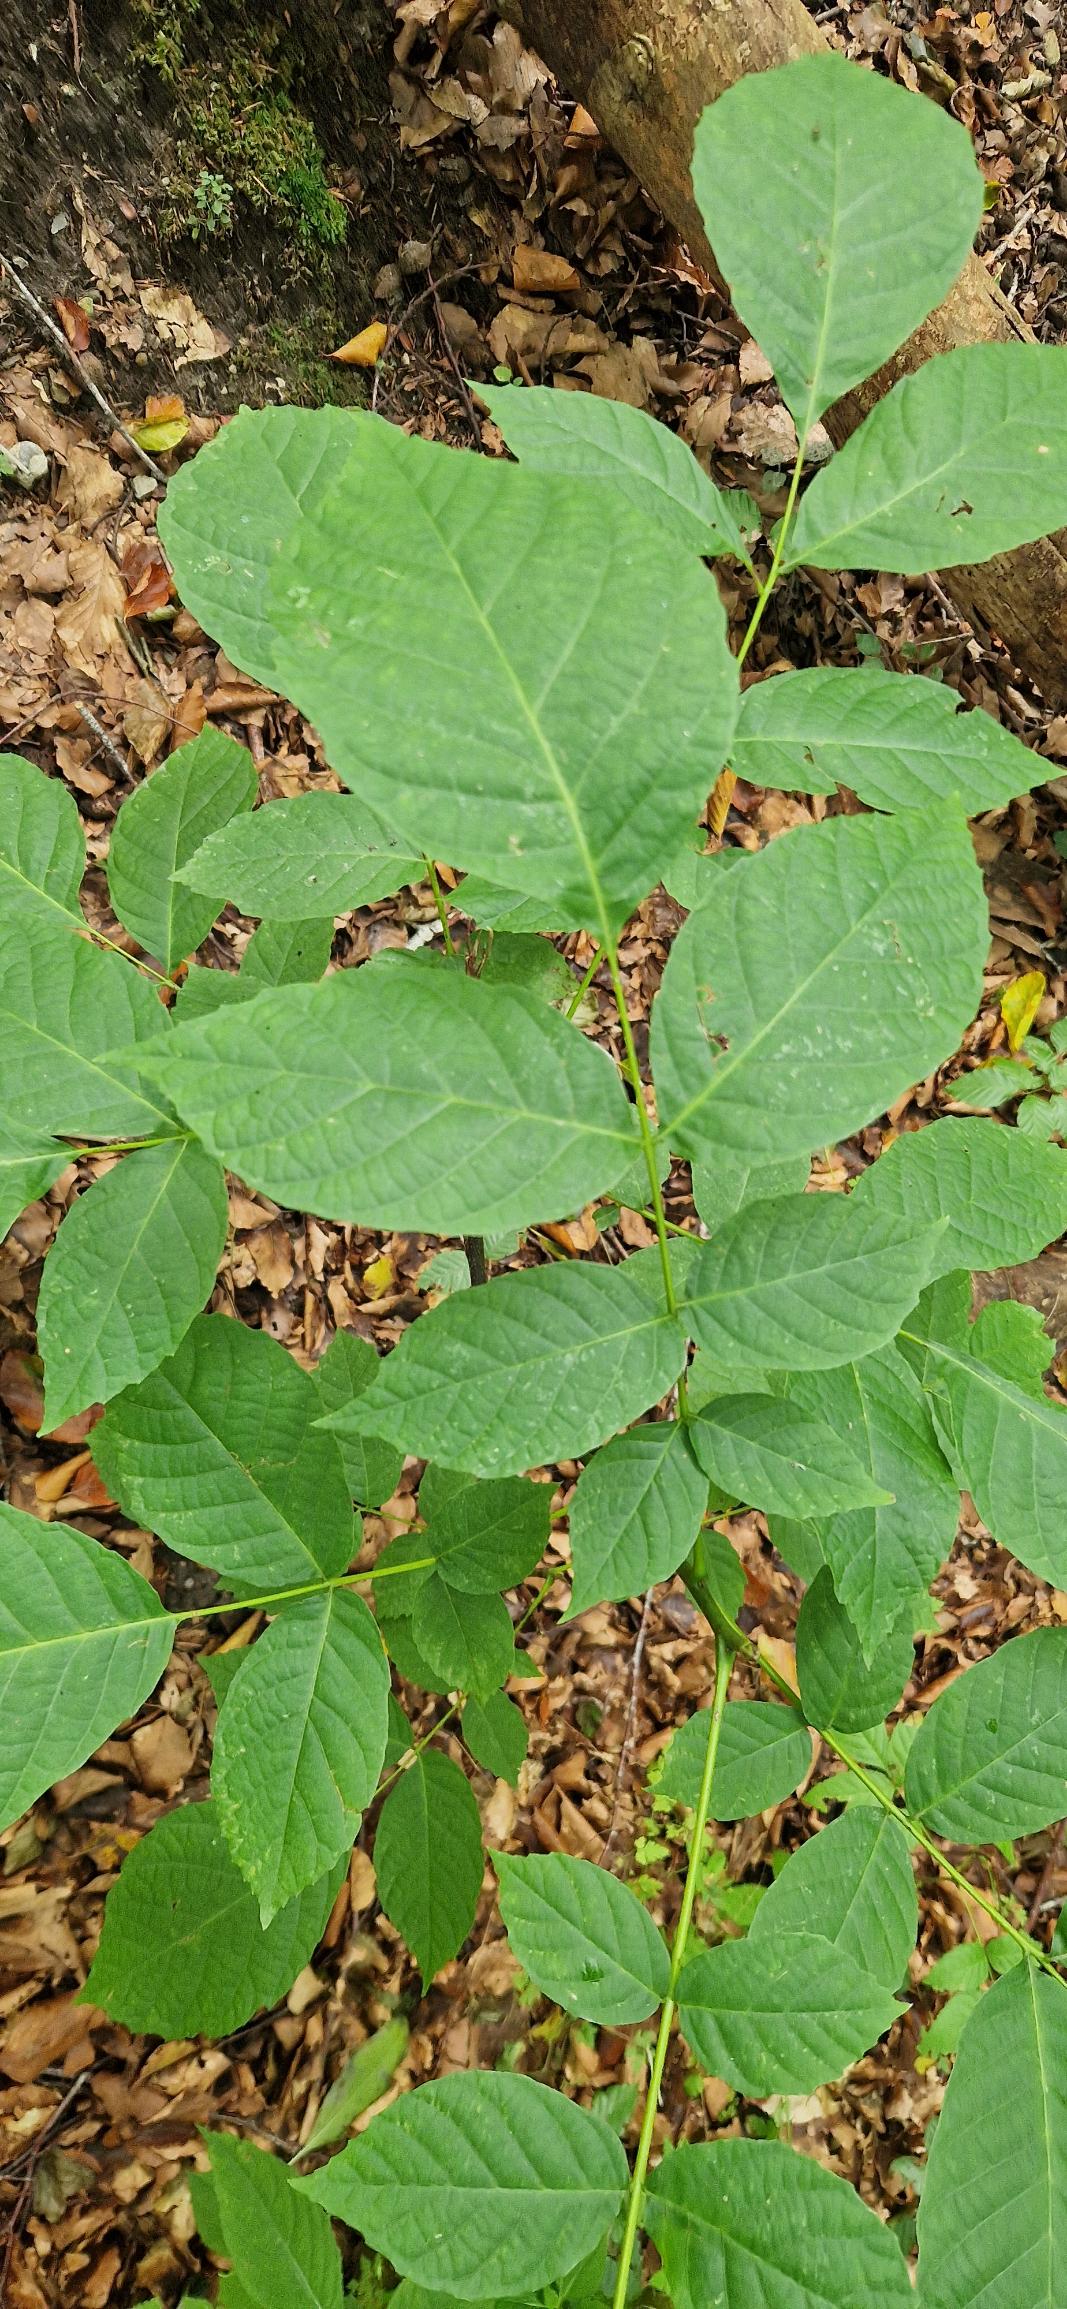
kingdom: Plantae
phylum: Tracheophyta
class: Magnoliopsida
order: Fagales
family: Juglandaceae
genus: Juglans
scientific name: Juglans regia
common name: Almindelig valnød
